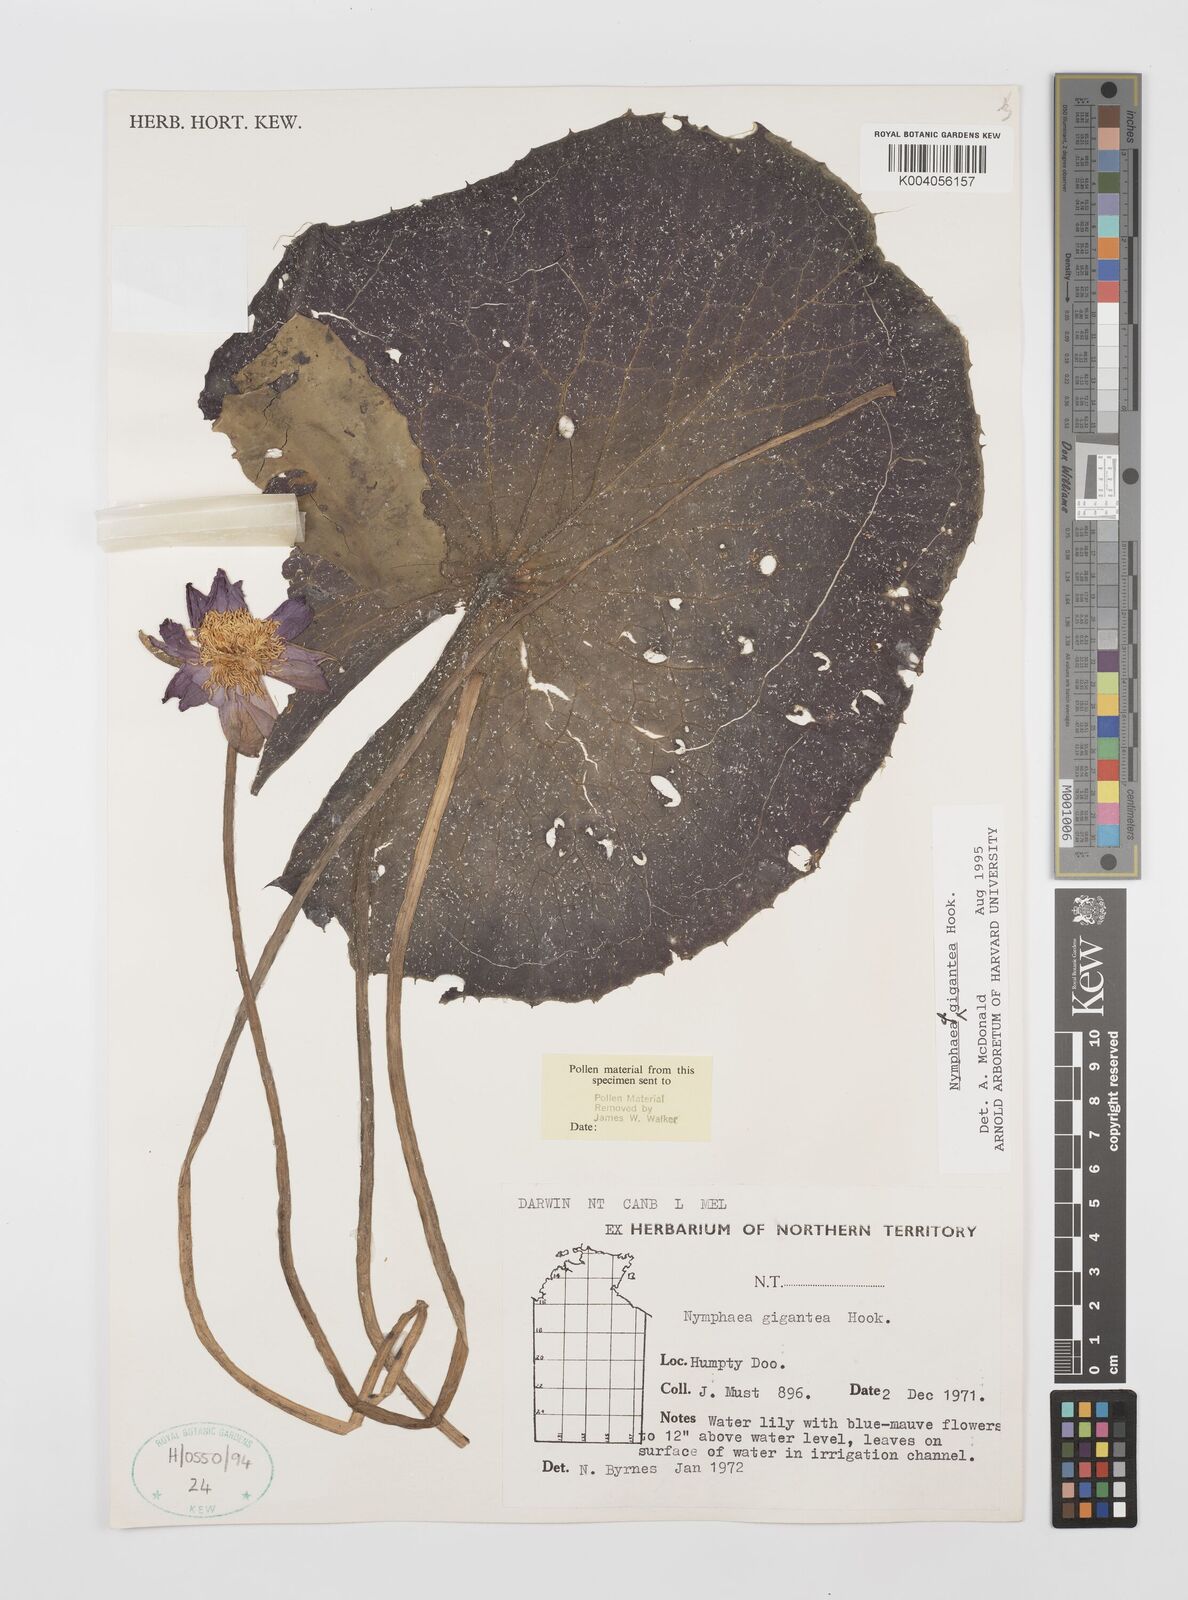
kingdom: Plantae
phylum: Tracheophyta
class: Magnoliopsida
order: Nymphaeales
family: Nymphaeaceae
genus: Nymphaea
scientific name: Nymphaea gigantea
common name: Giant water-lily
